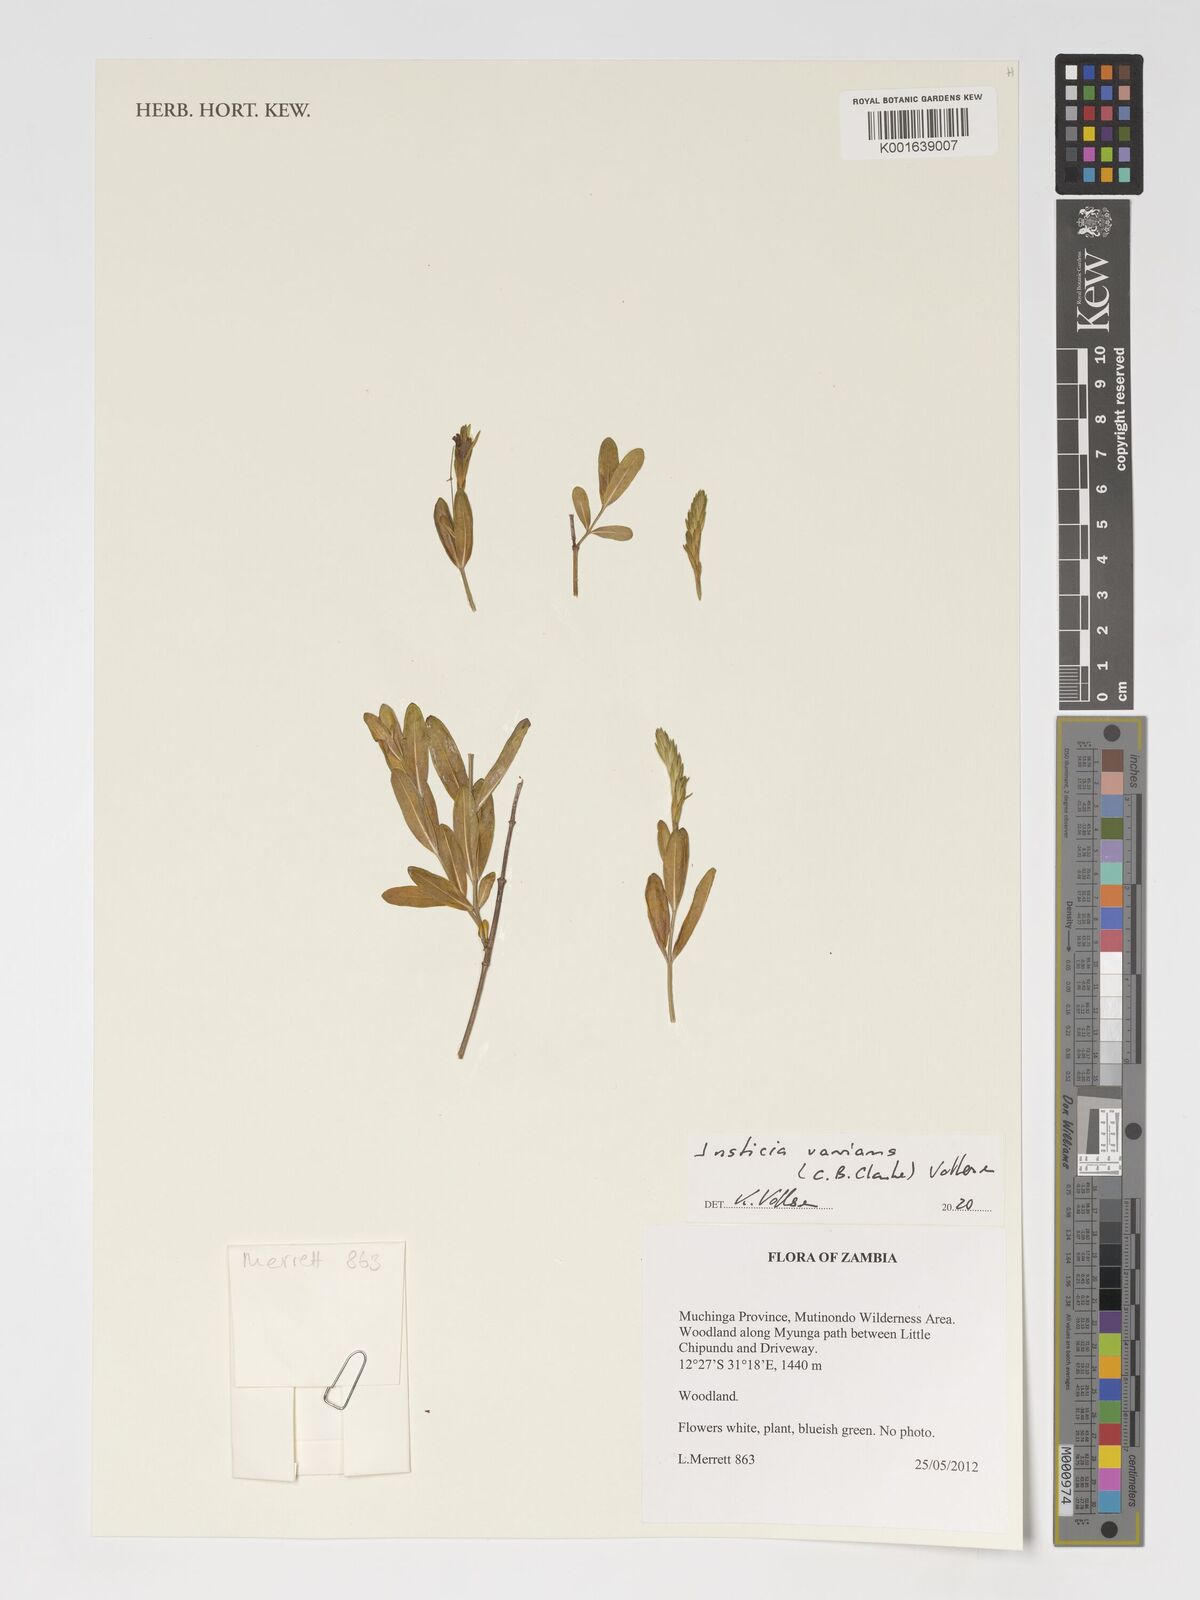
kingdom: Plantae
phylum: Tracheophyta
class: Magnoliopsida
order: Lamiales
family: Acanthaceae
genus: Monechma
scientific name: Monechma varians
